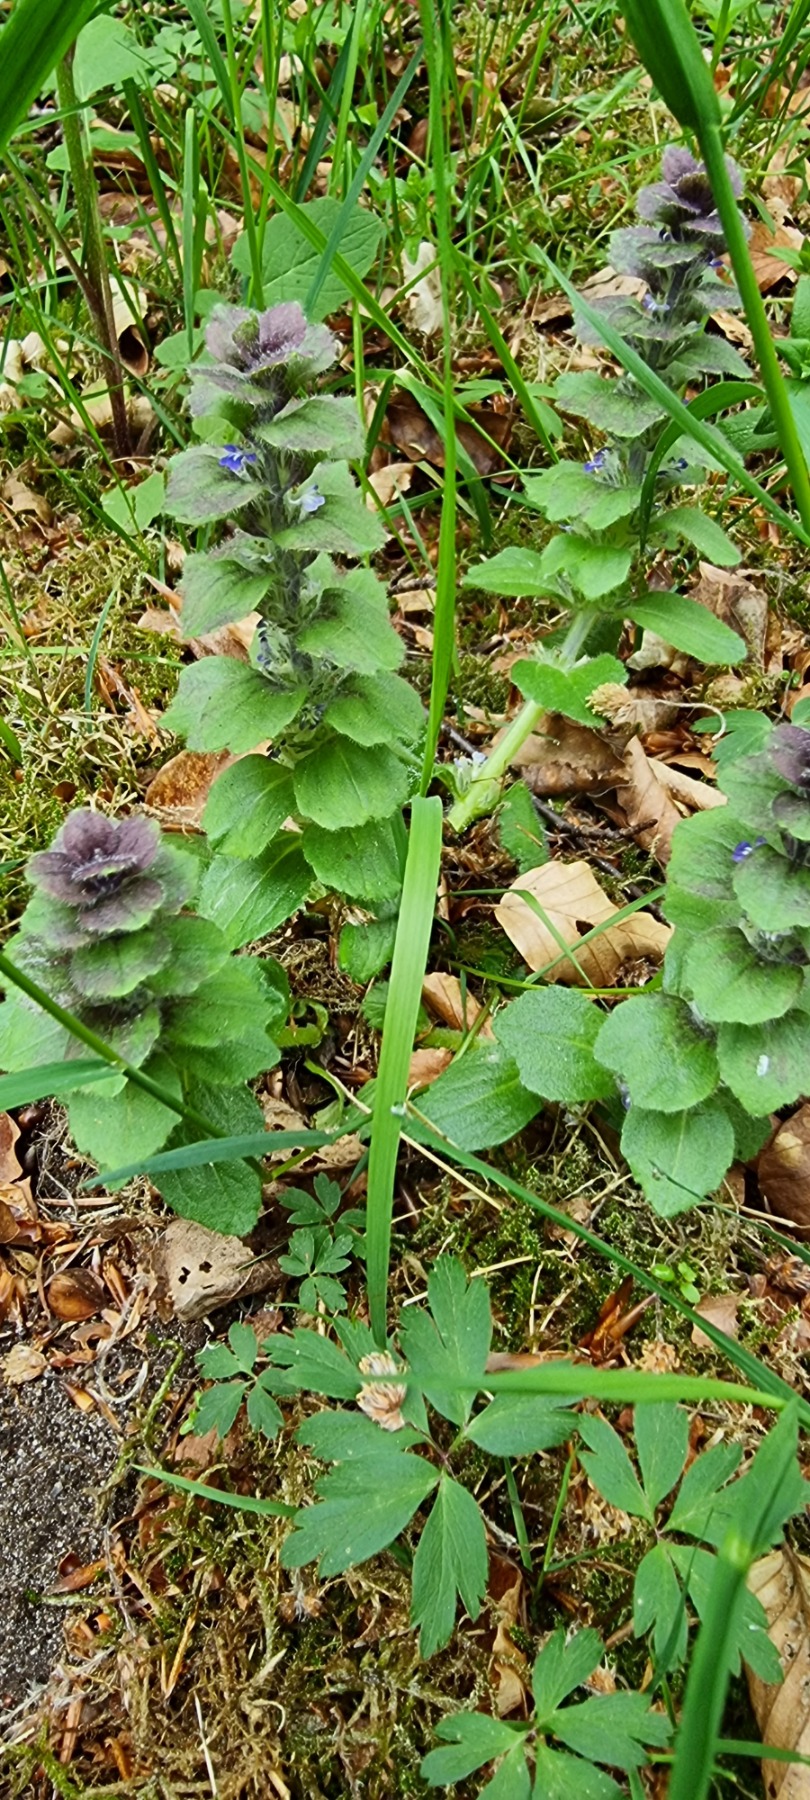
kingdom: Plantae
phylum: Tracheophyta
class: Magnoliopsida
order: Lamiales
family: Lamiaceae
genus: Ajuga
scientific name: Ajuga pyramidalis
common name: Pyramide-læbeløs
